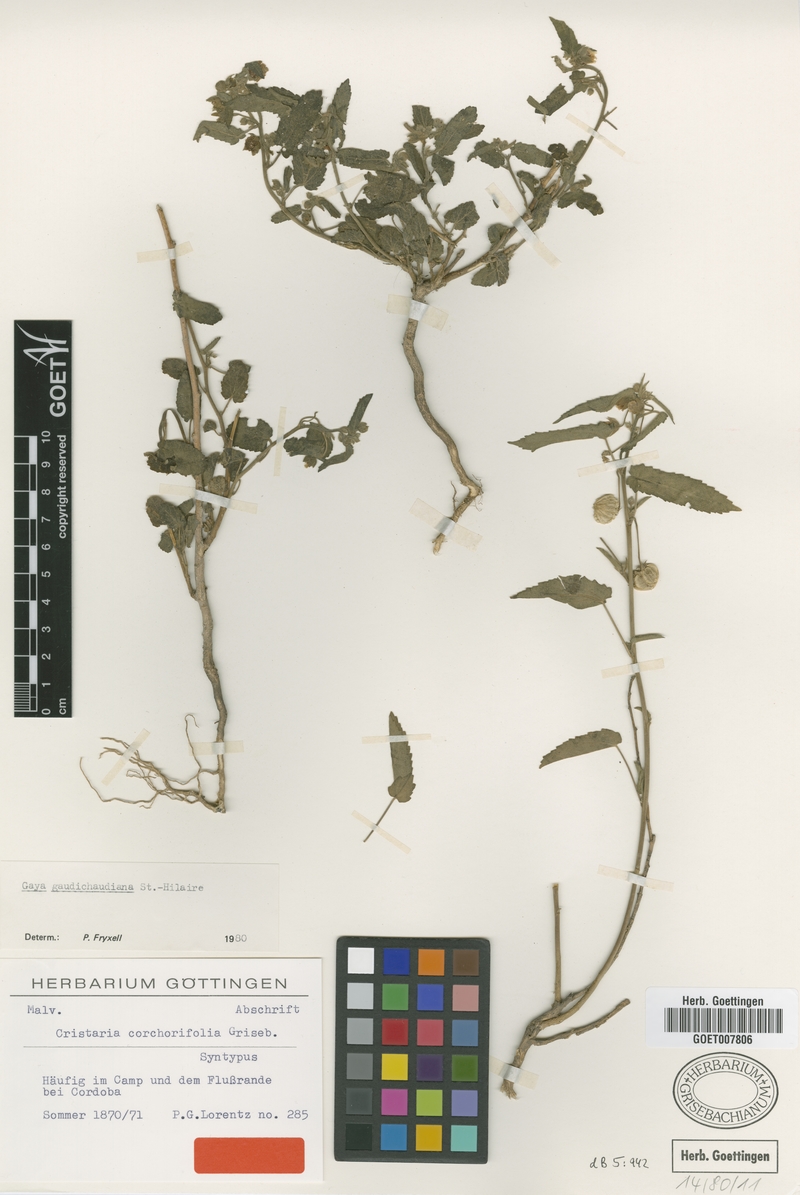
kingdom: Plantae
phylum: Tracheophyta
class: Magnoliopsida
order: Malvales
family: Malvaceae
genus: Gaya
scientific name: Gaya gaudichaudiana
